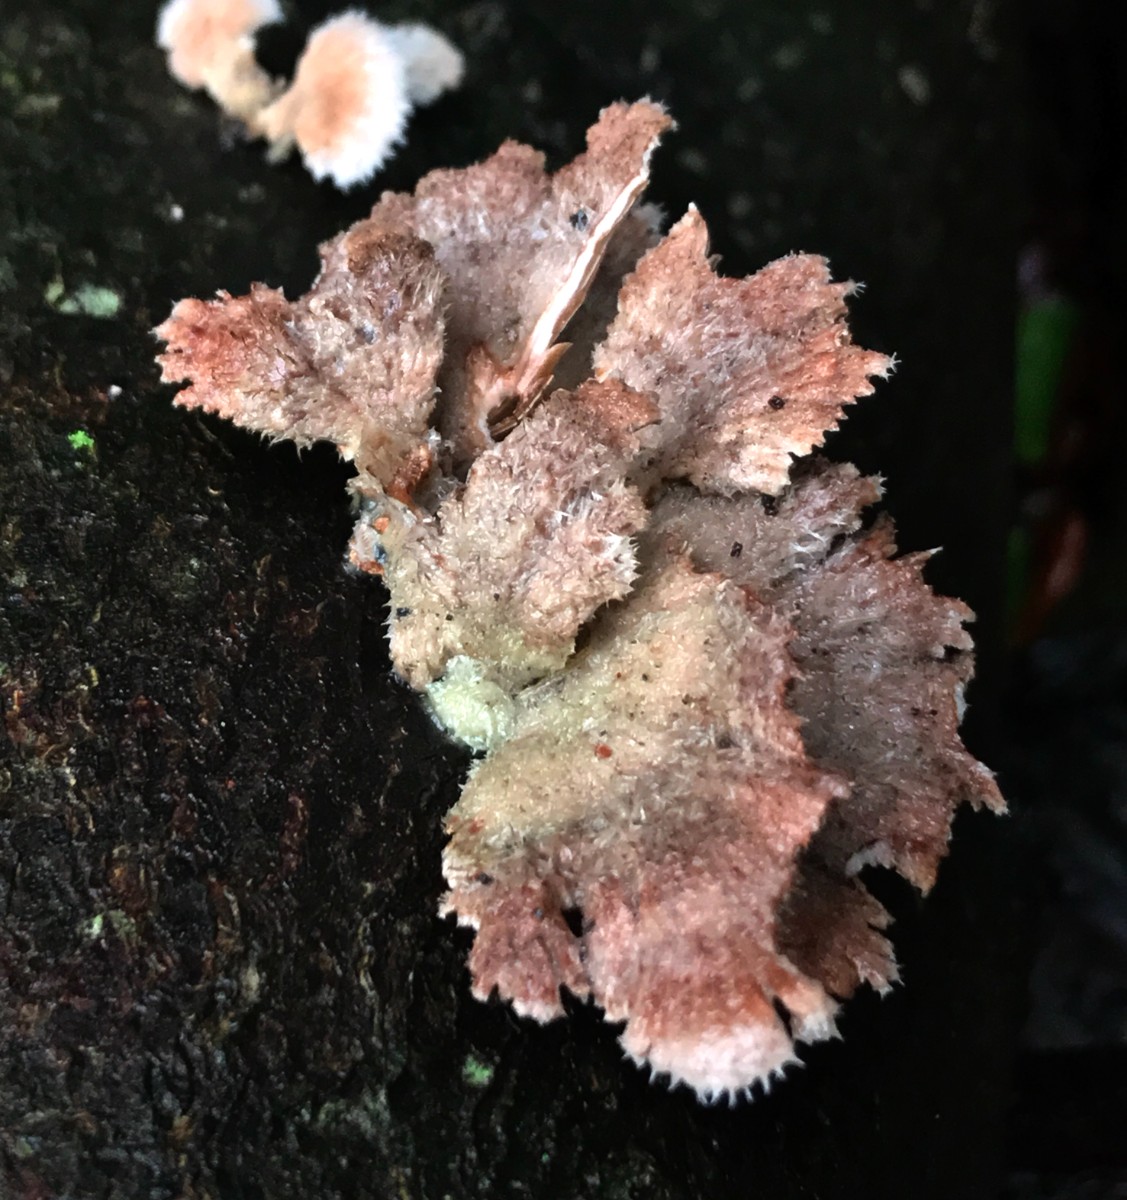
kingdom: Fungi
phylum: Basidiomycota
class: Agaricomycetes
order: Agaricales
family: Schizophyllaceae
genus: Schizophyllum
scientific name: Schizophyllum commune
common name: kløvblad
